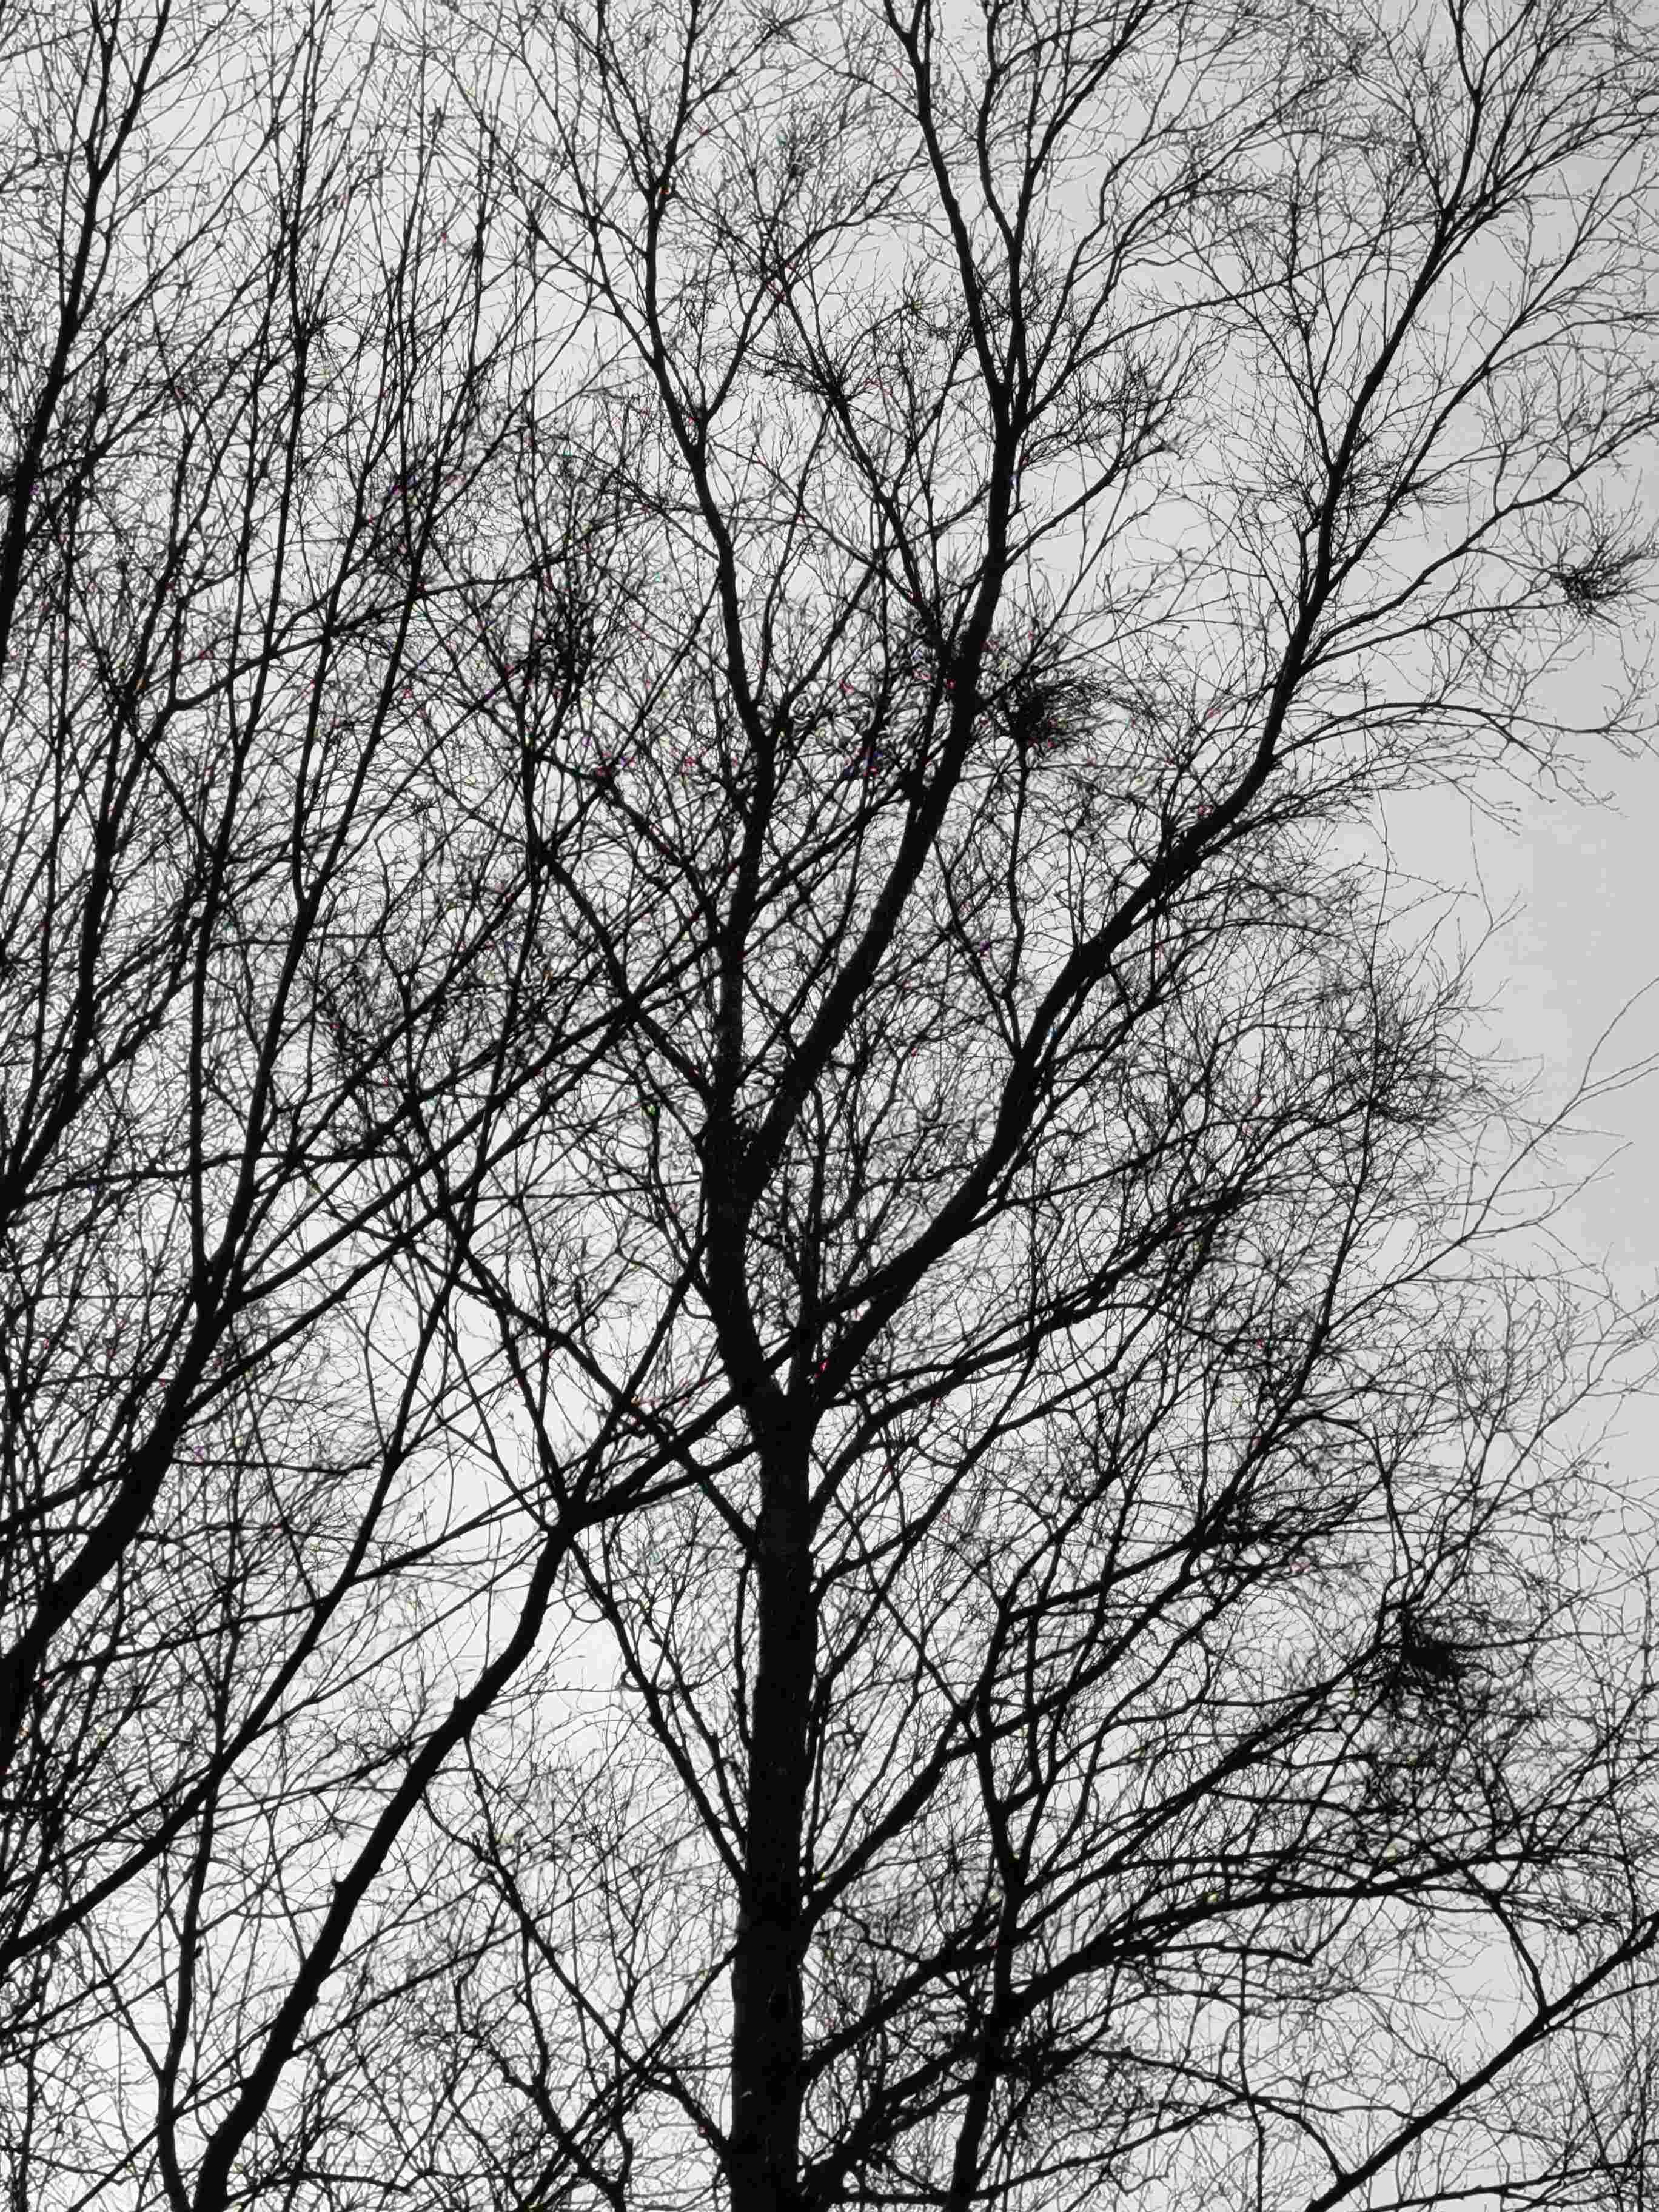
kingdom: Fungi
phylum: Ascomycota
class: Taphrinomycetes
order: Taphrinales
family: Taphrinaceae
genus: Taphrina
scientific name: Taphrina betulina
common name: hekse-sækdug
